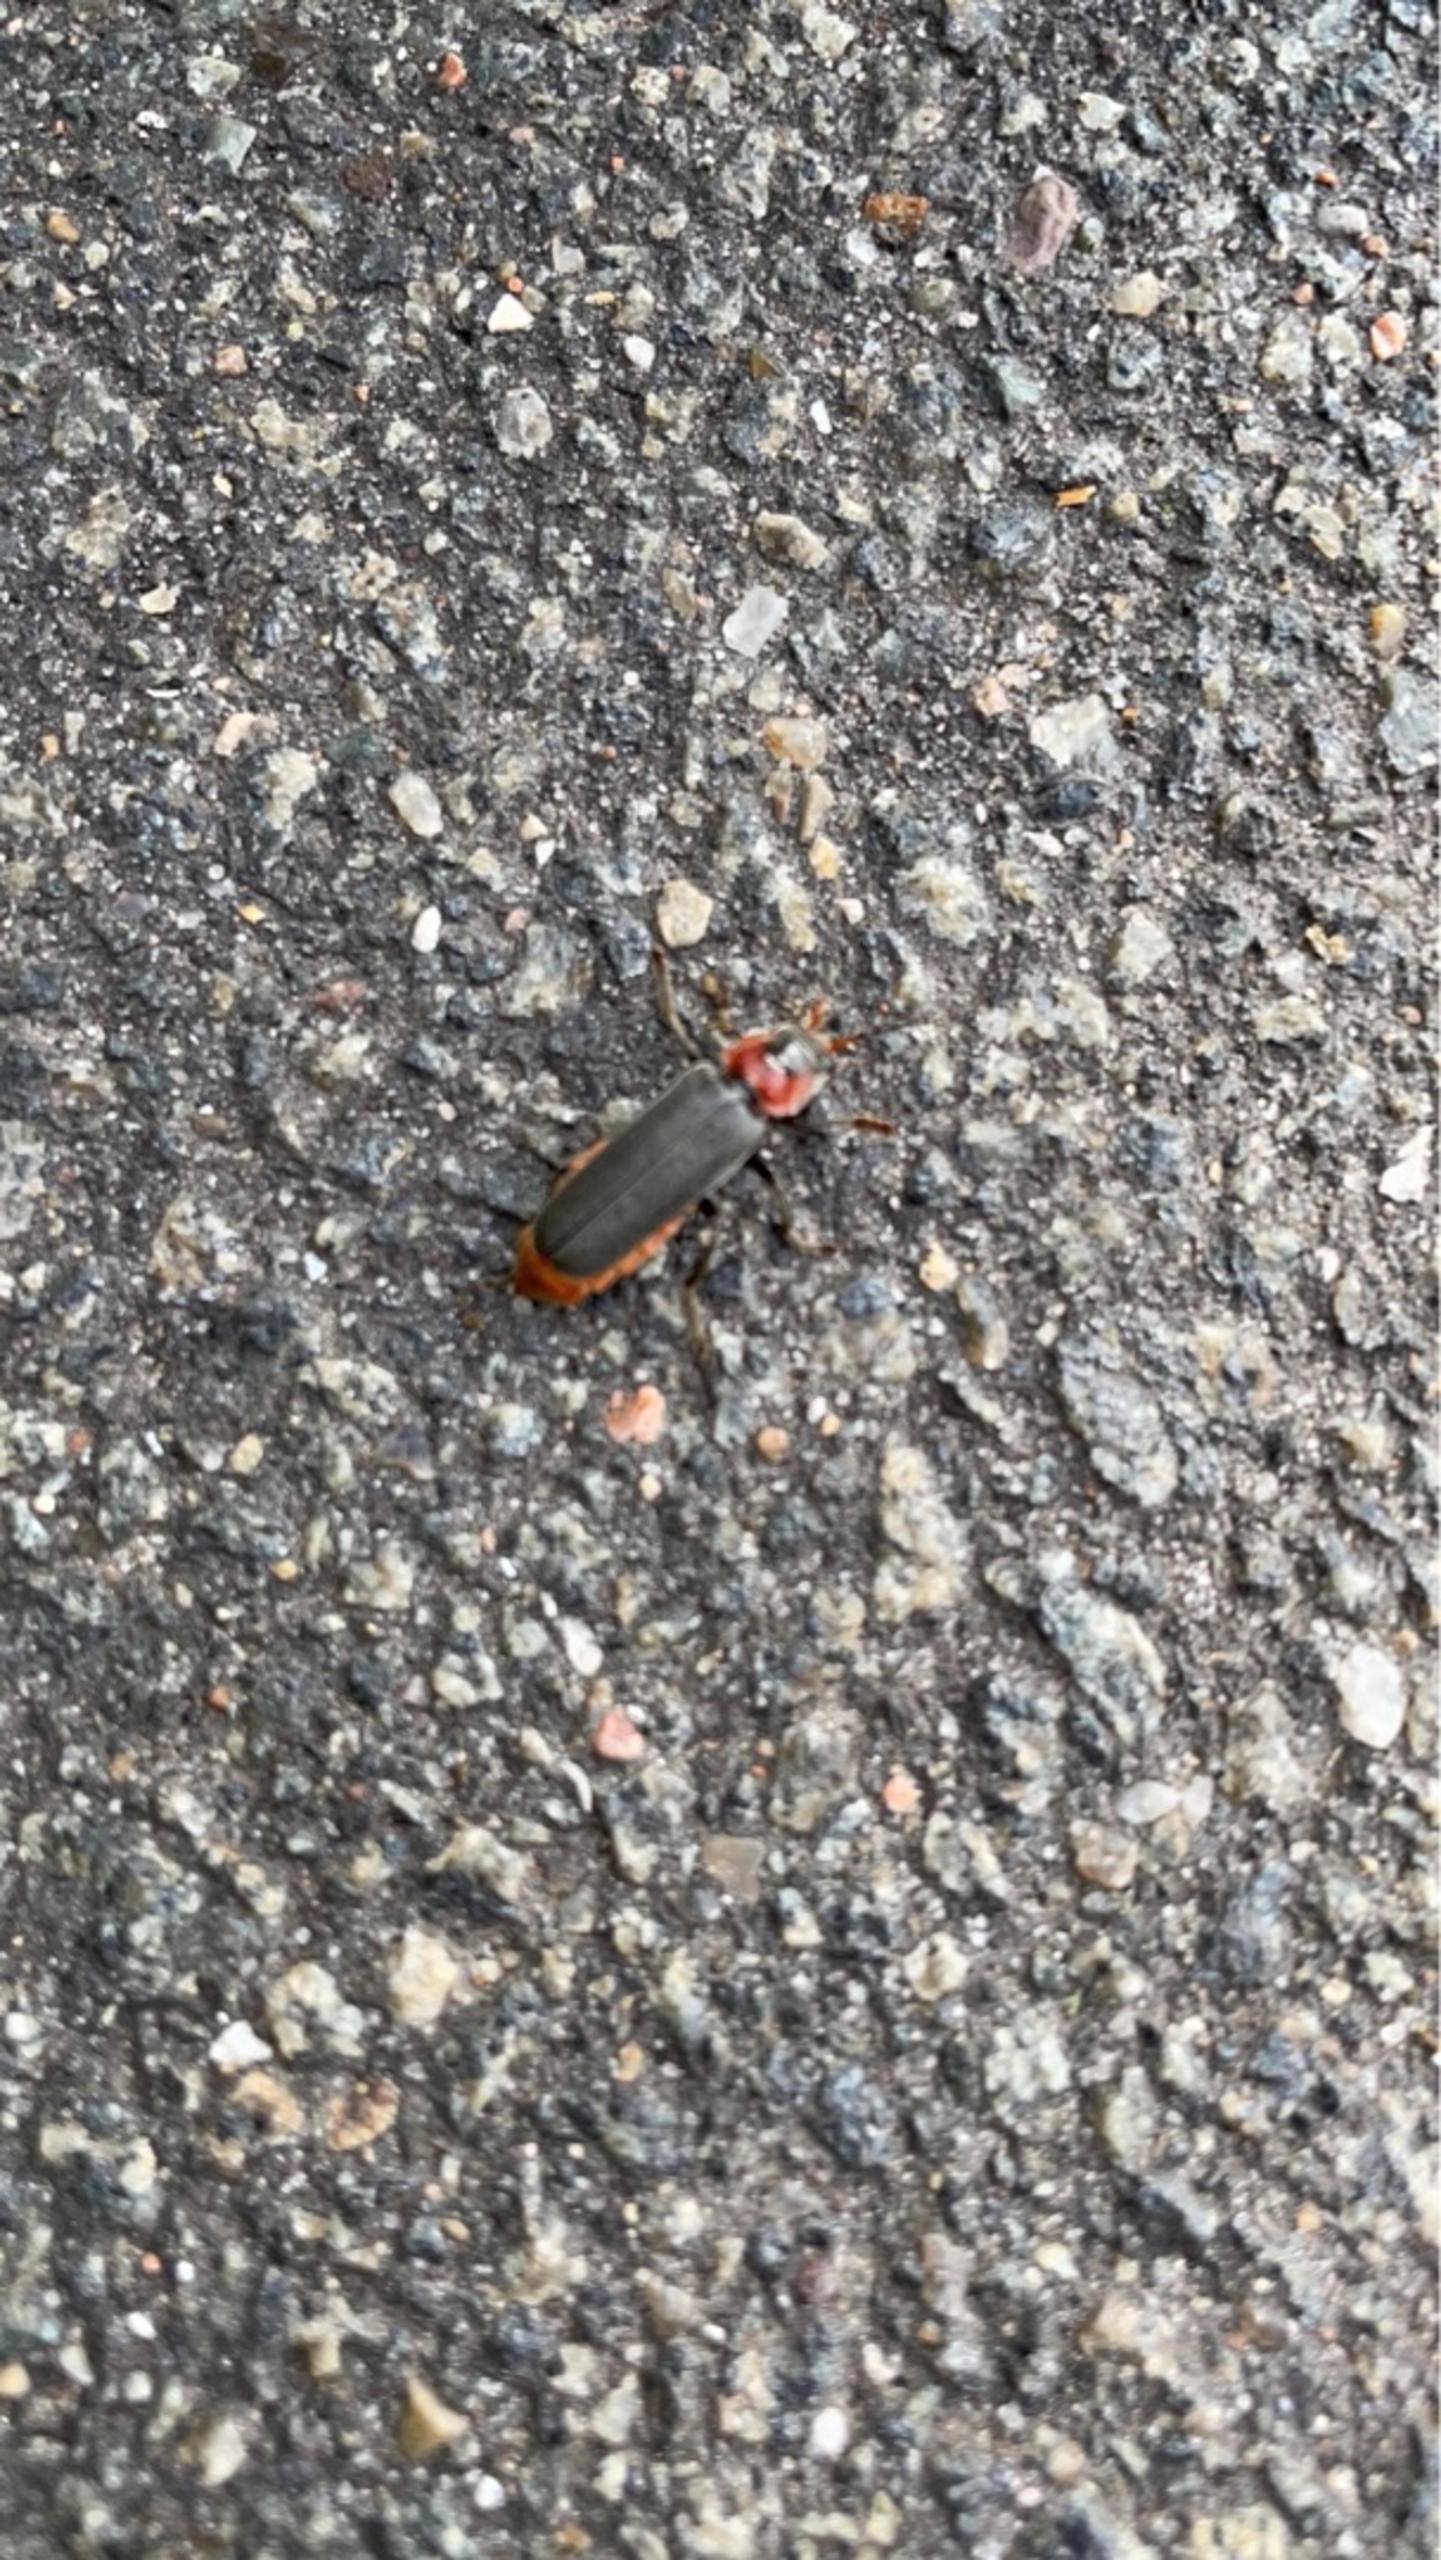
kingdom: Animalia
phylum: Arthropoda
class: Insecta
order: Coleoptera
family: Cantharidae
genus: Cantharis
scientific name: Cantharis fusca
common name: Stor blødvinge
